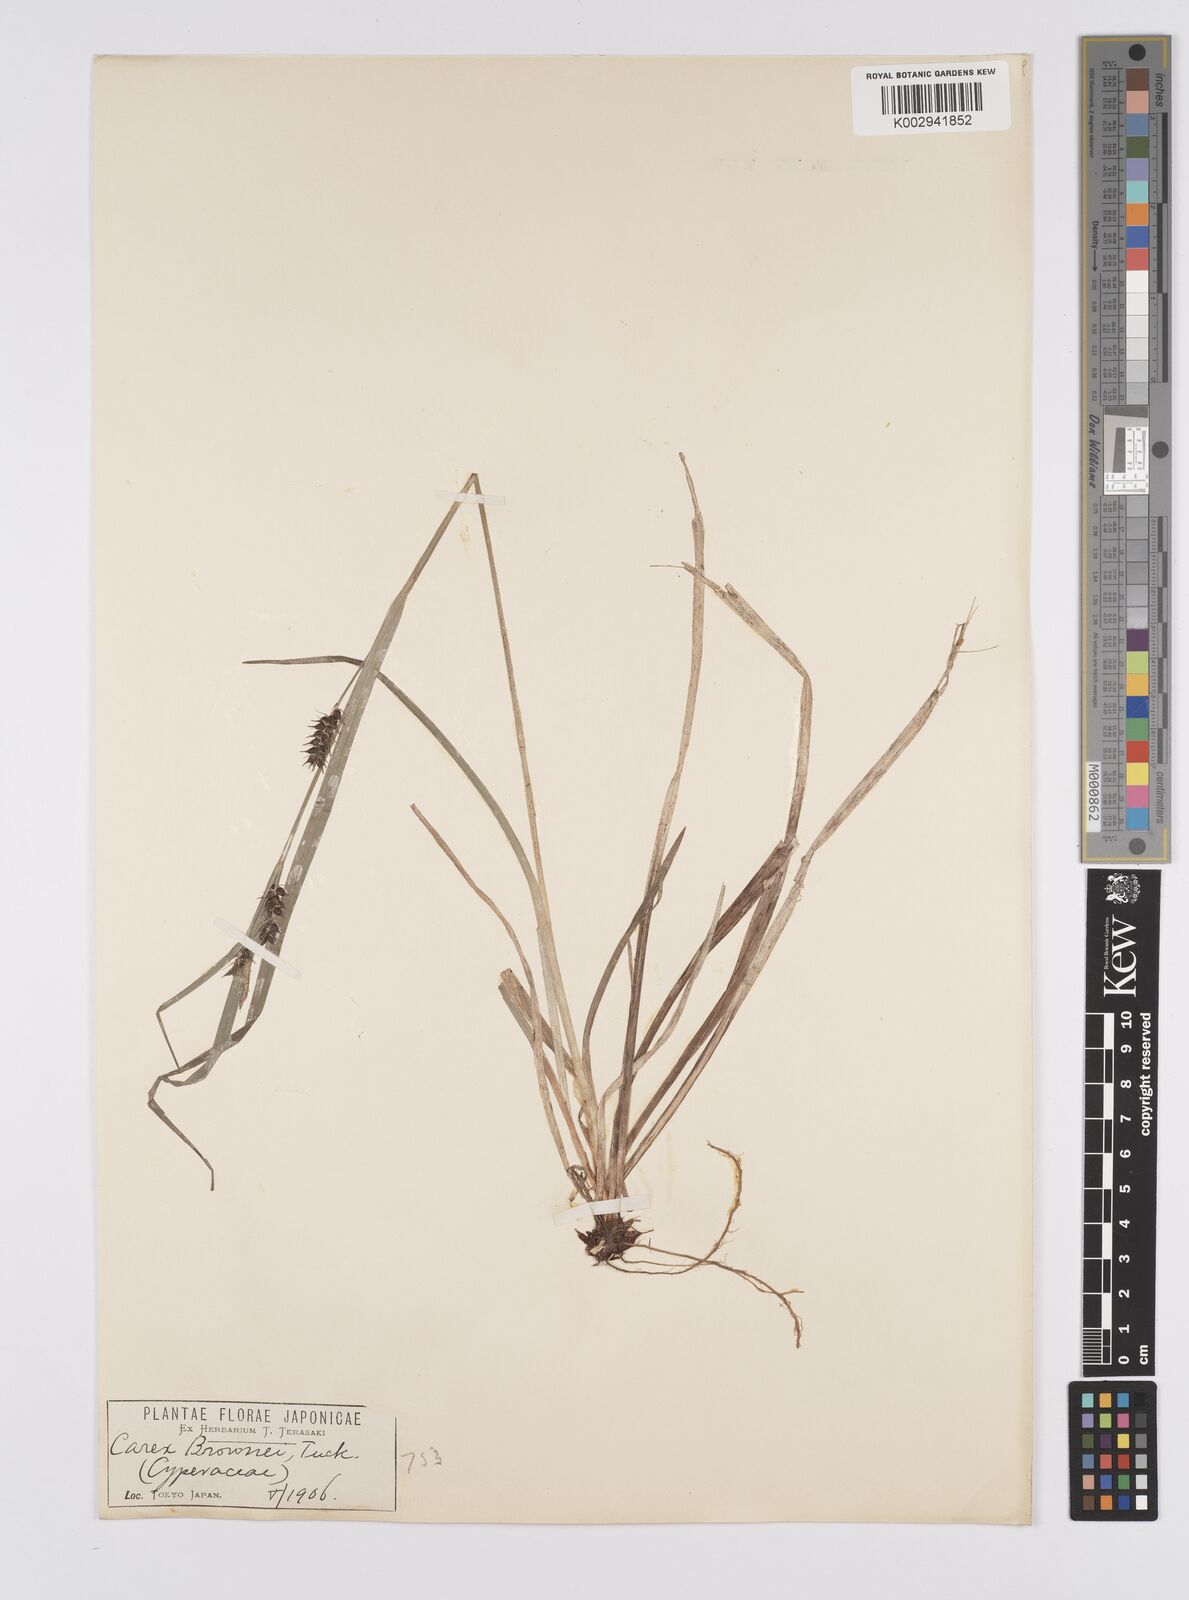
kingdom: Plantae
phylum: Tracheophyta
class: Liliopsida
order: Poales
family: Cyperaceae
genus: Carex
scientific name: Carex brownii
